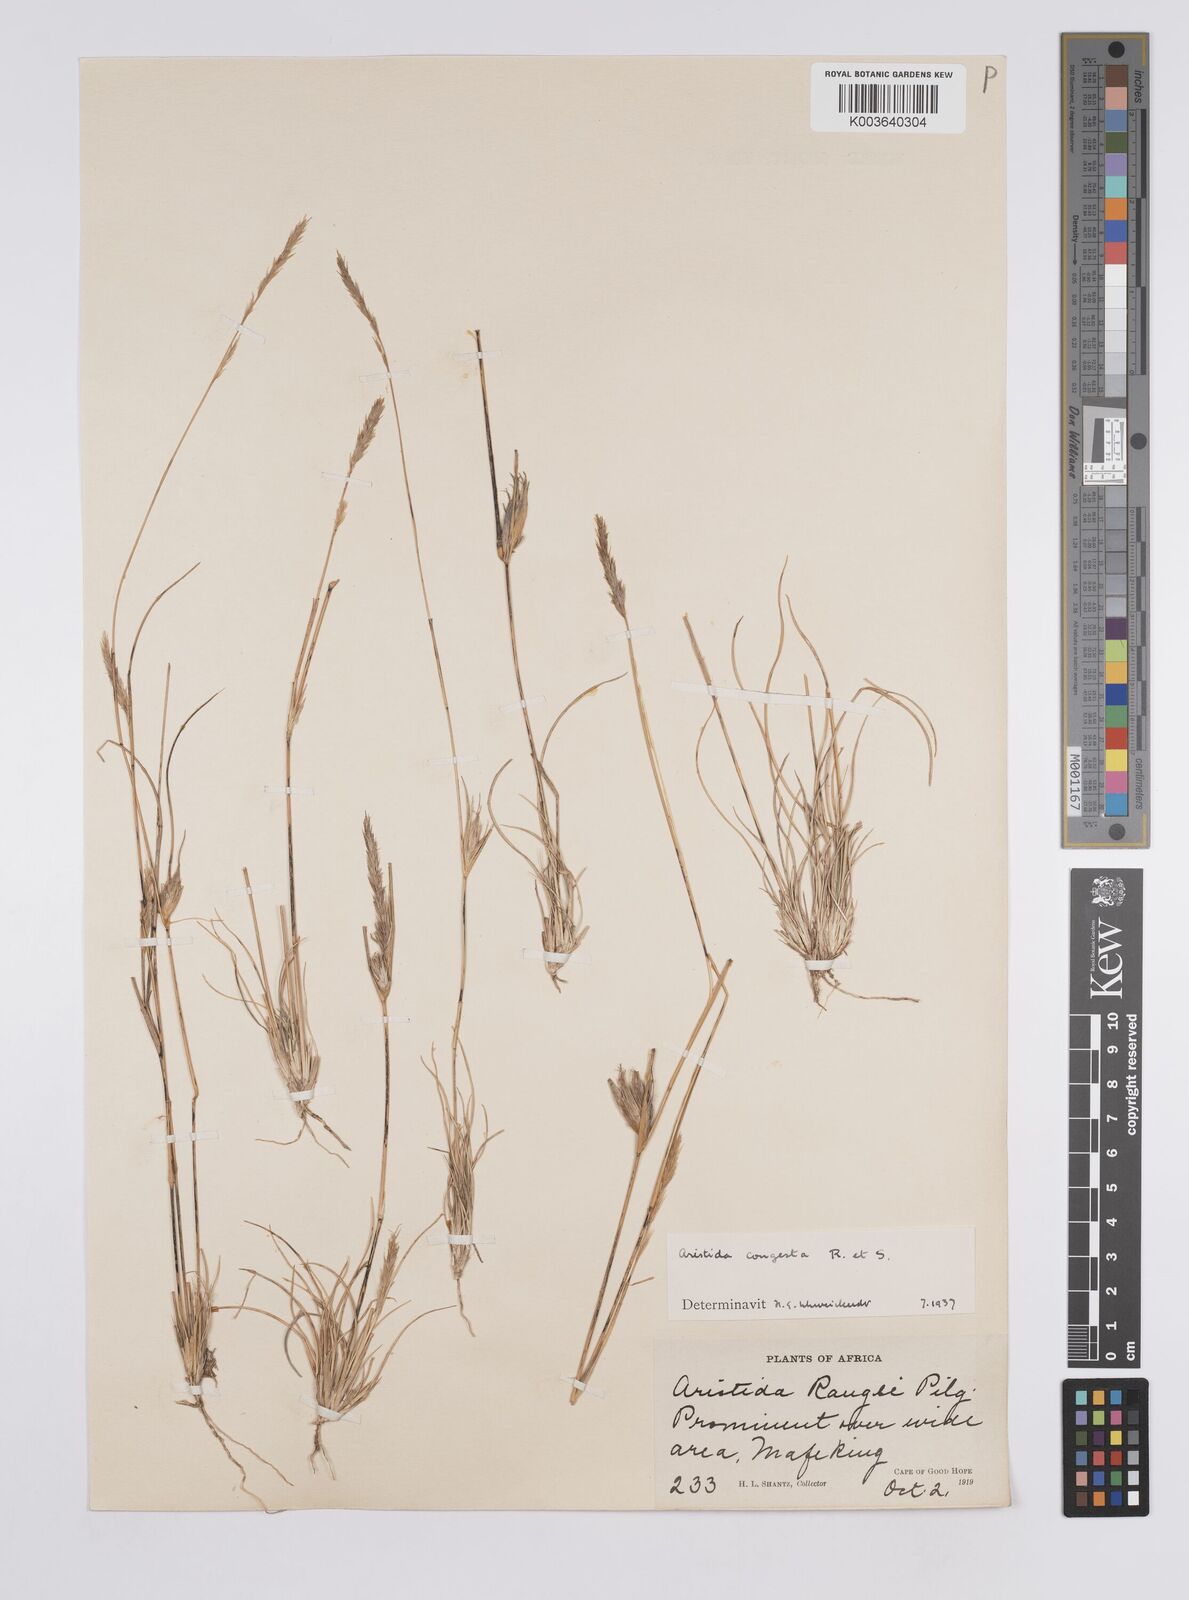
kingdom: Plantae
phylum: Tracheophyta
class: Liliopsida
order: Poales
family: Poaceae
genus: Aristida
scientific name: Aristida congesta
